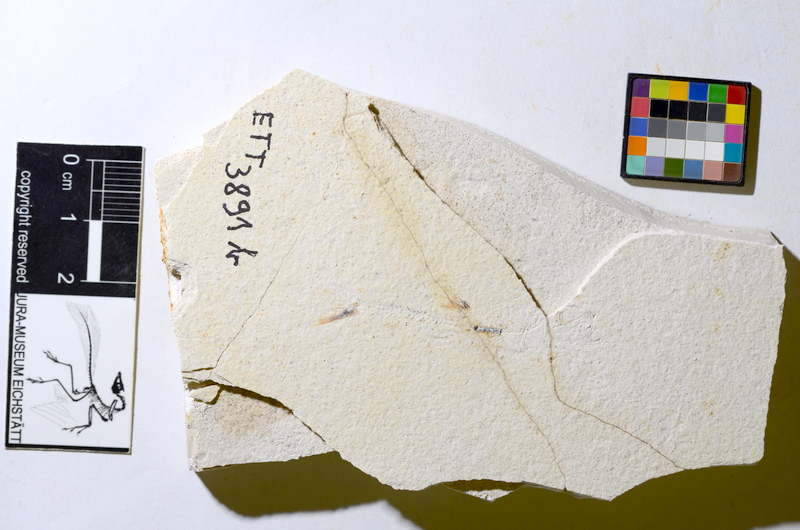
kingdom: Animalia
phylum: Chordata
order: Salmoniformes
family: Orthogonikleithridae
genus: Orthogonikleithrus
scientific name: Orthogonikleithrus hoelli
